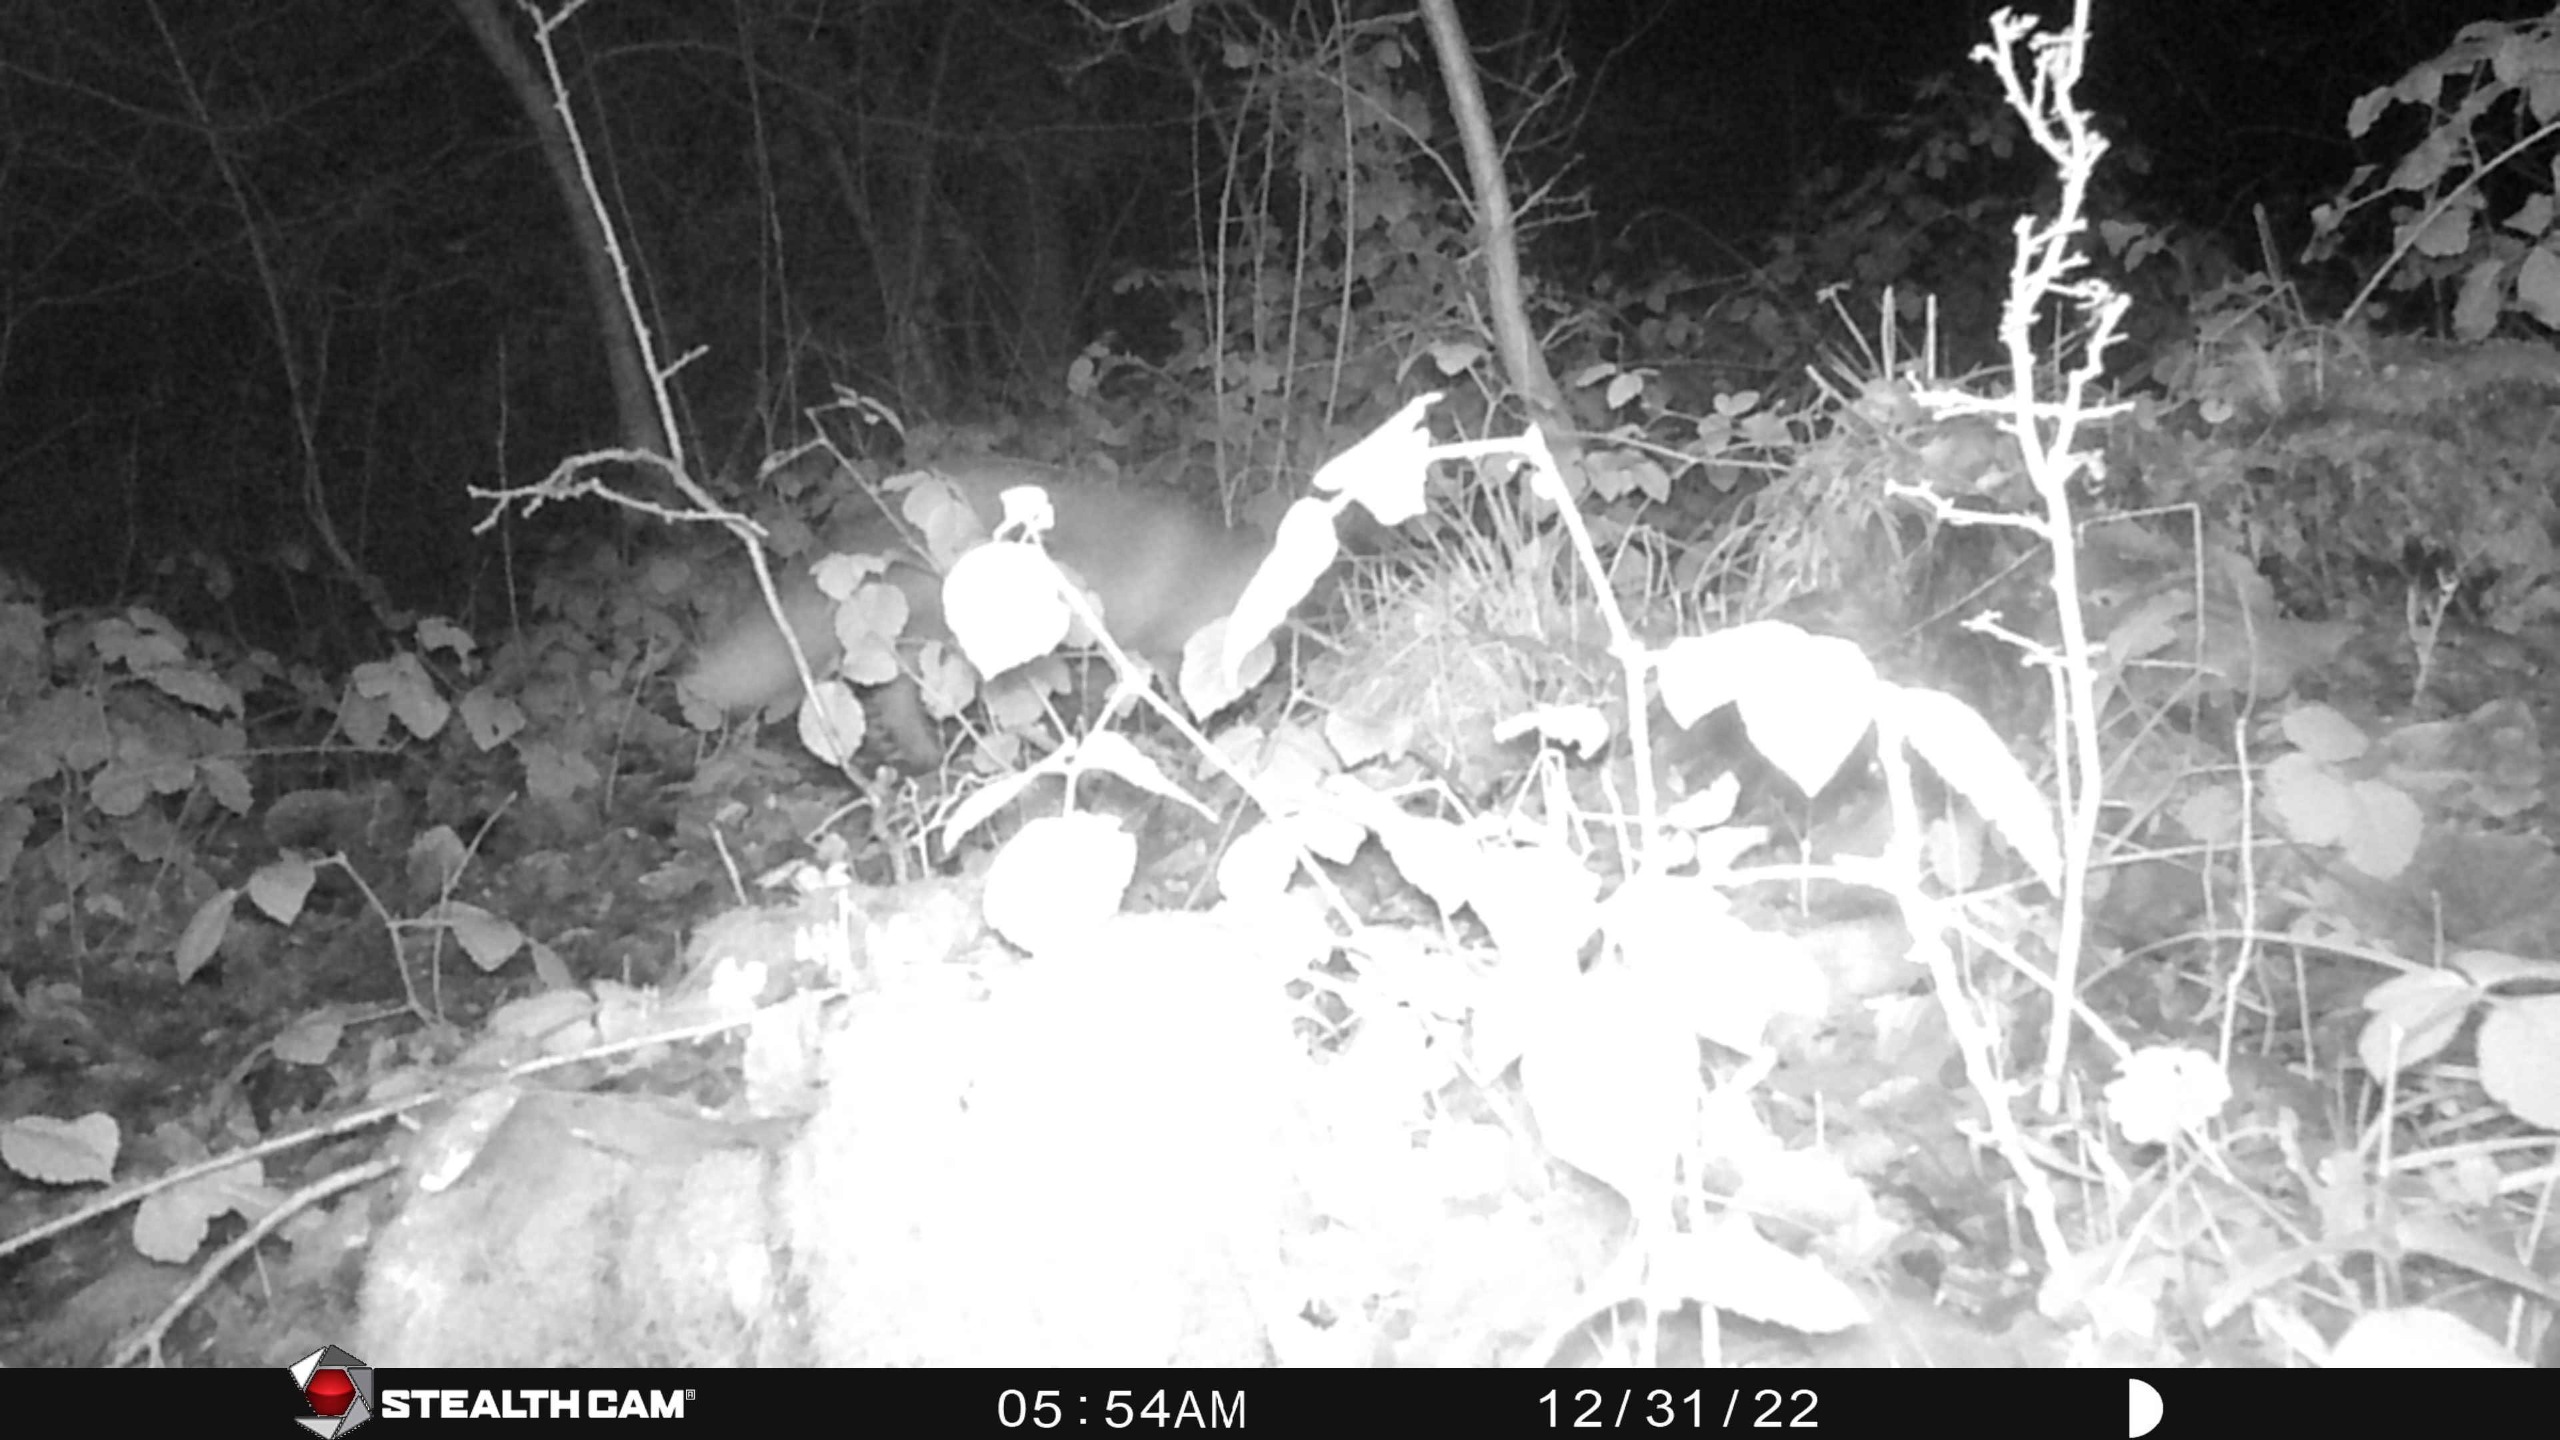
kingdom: Animalia
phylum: Chordata
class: Mammalia
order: Carnivora
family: Canidae
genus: Vulpes
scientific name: Vulpes vulpes
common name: Ræv
